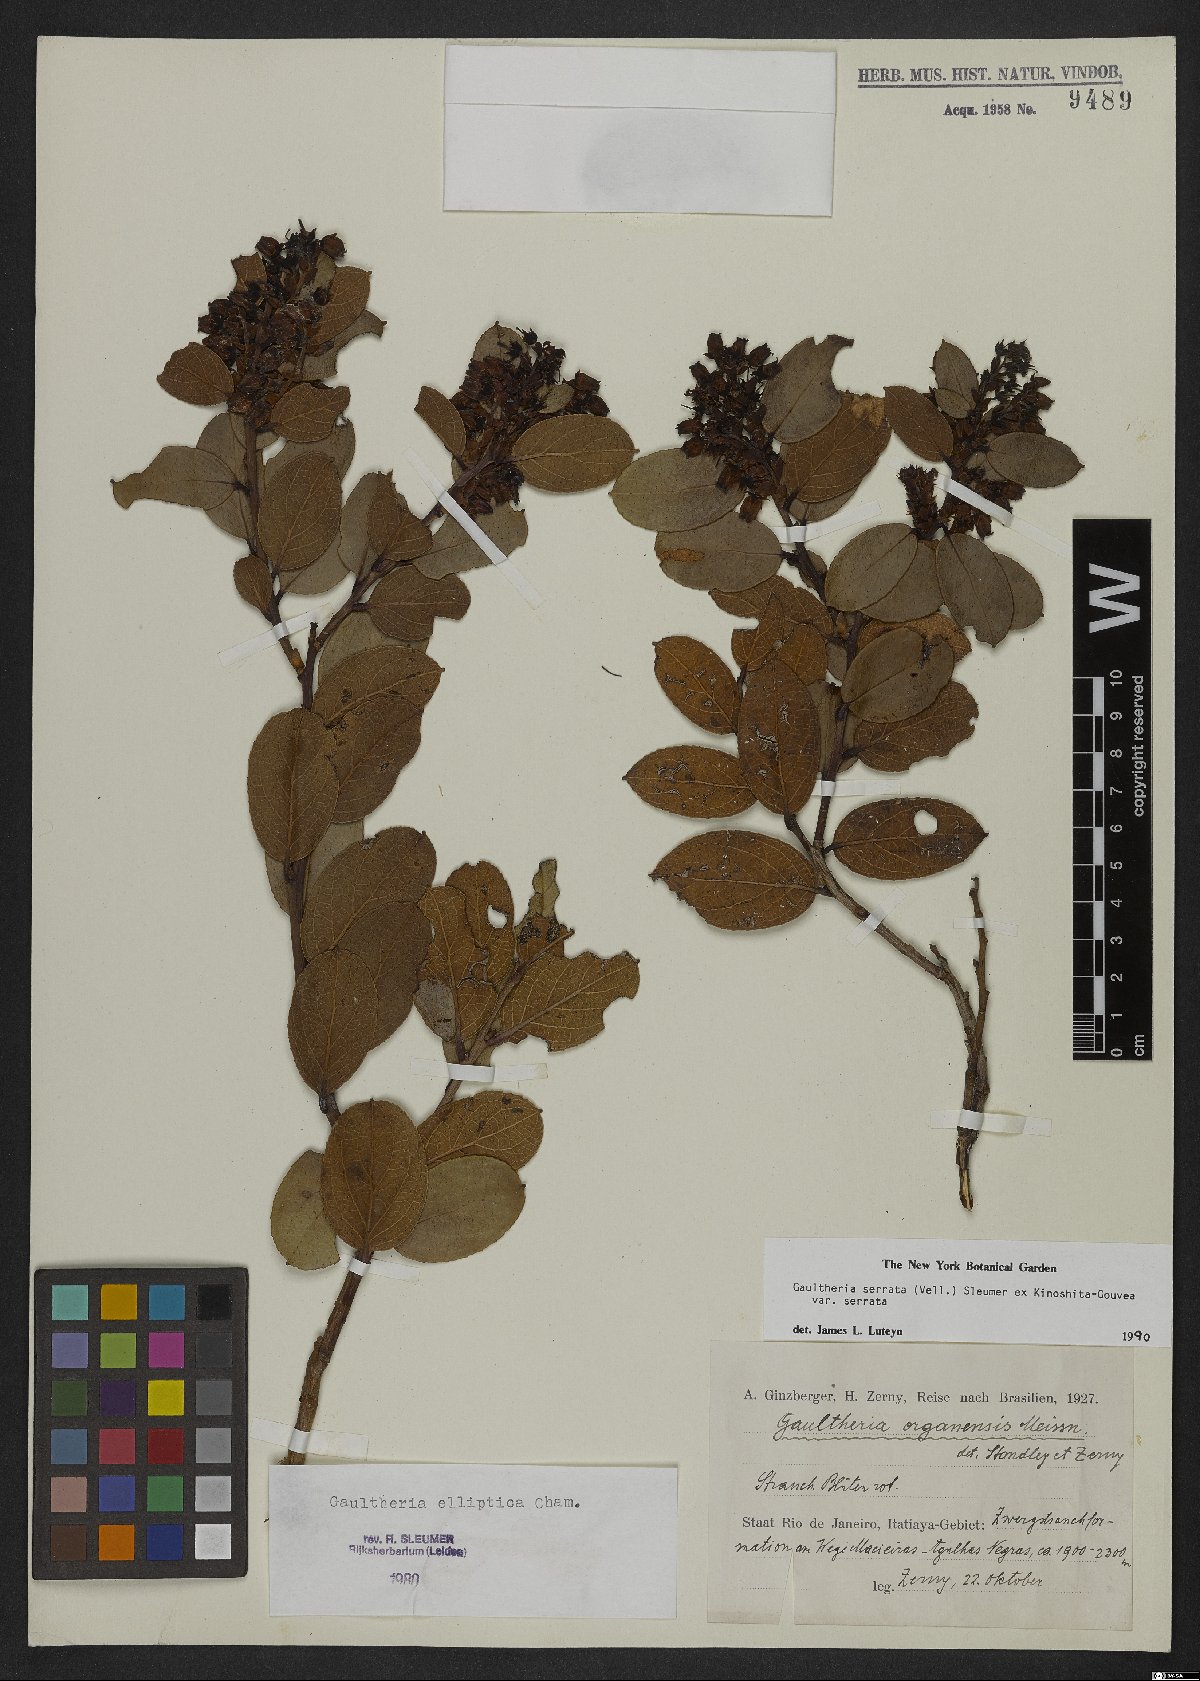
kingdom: Plantae
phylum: Tracheophyta
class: Magnoliopsida
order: Ericales
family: Ericaceae
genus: Gaultheria
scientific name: Gaultheria serrata
